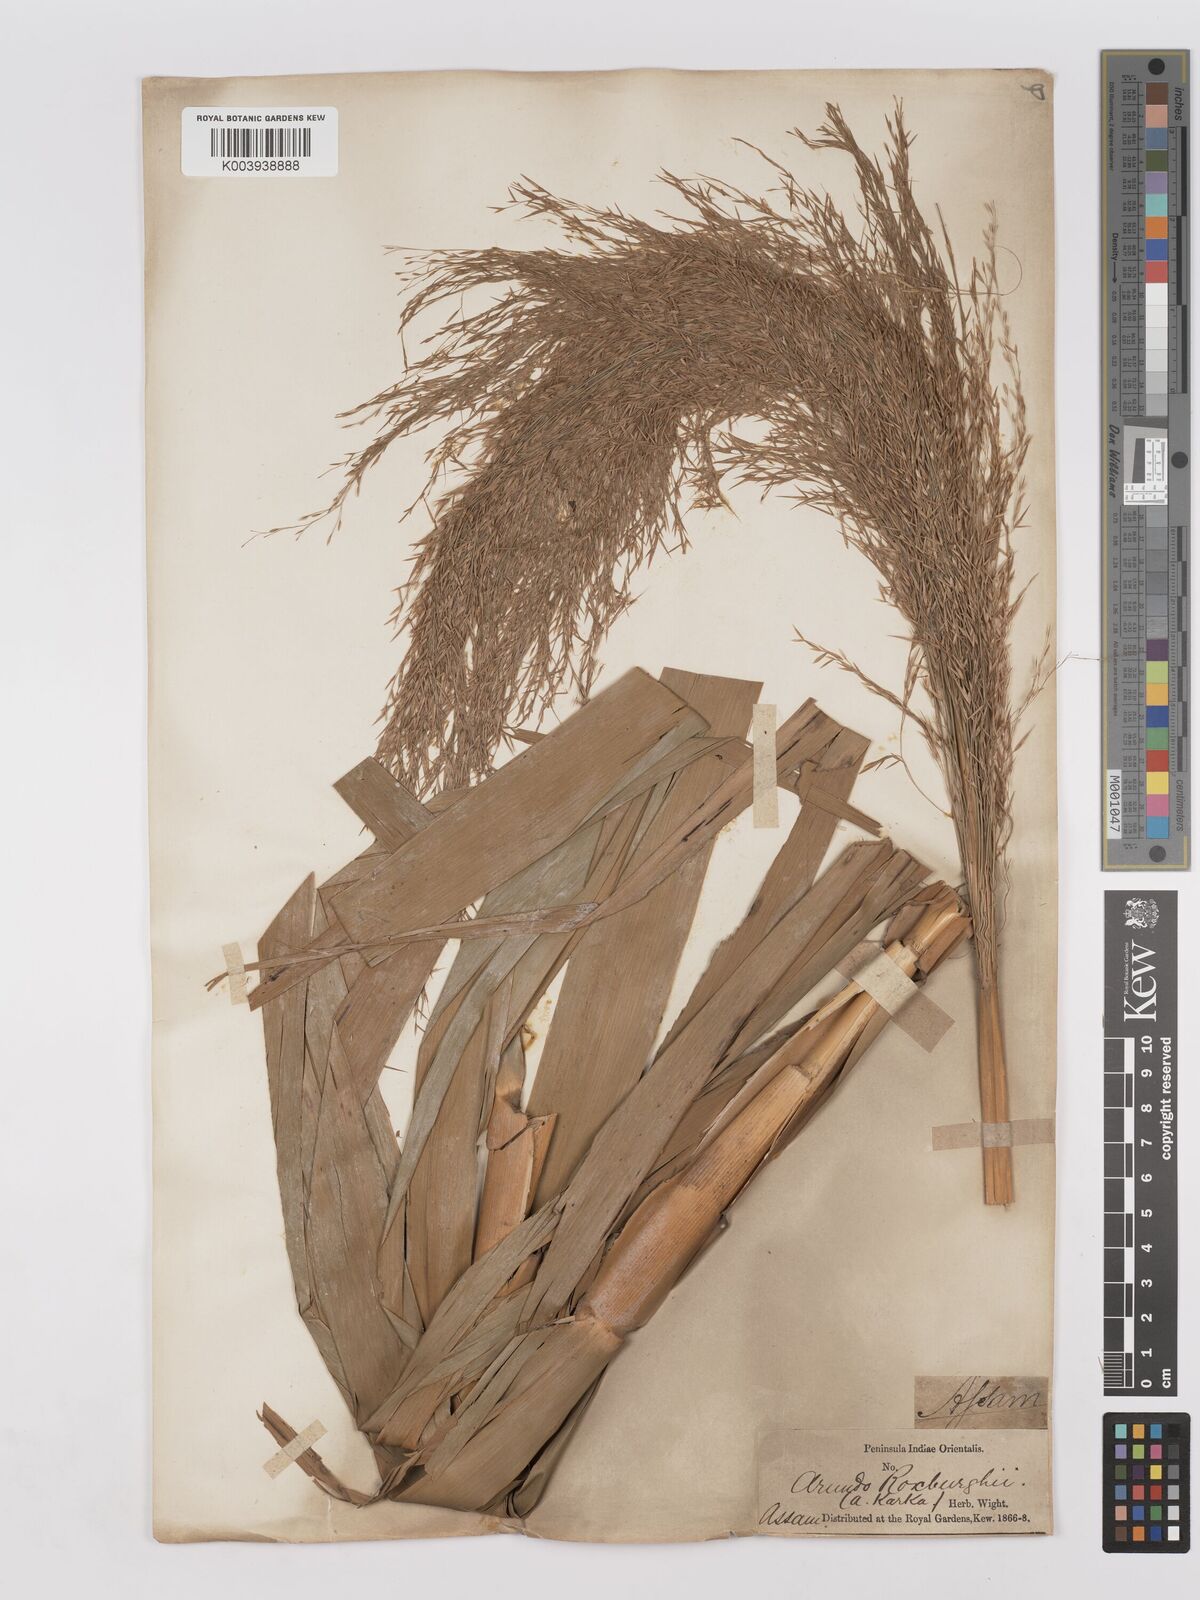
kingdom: Plantae
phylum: Tracheophyta
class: Liliopsida
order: Poales
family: Poaceae
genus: Phragmites
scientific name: Phragmites karka
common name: Tropical reed
